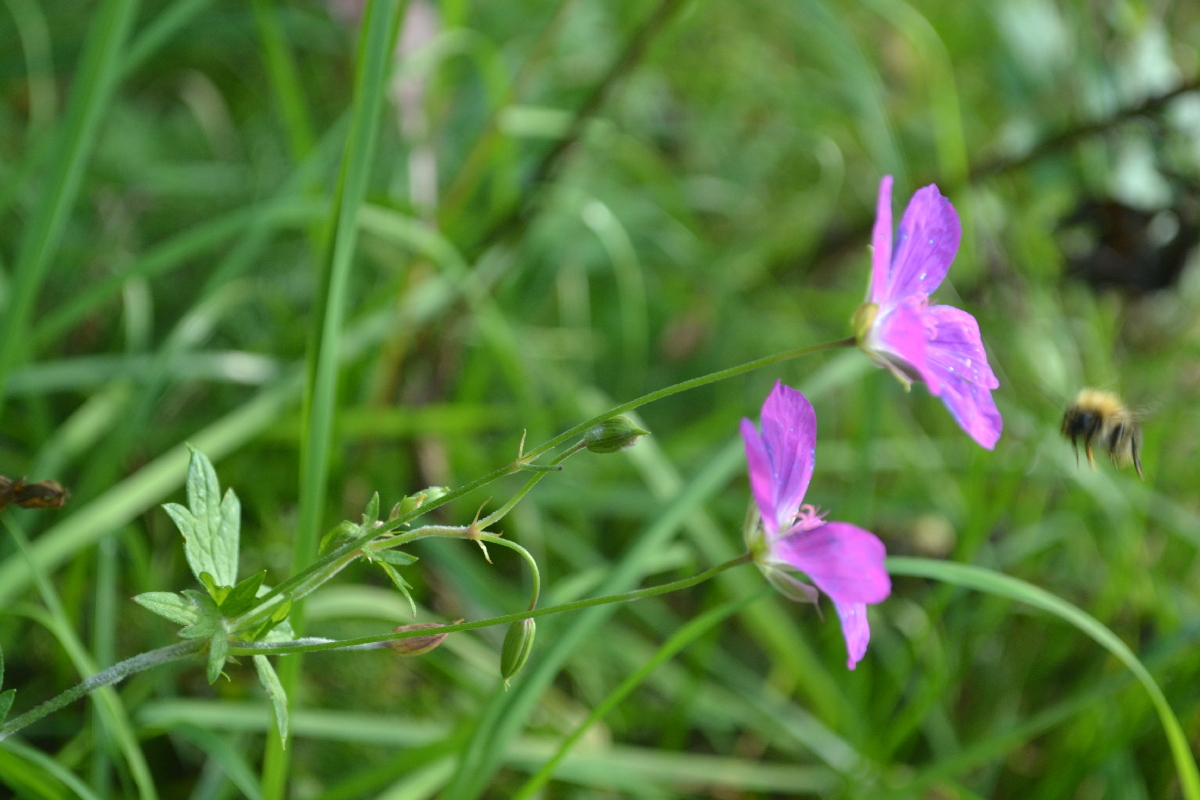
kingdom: Plantae
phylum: Tracheophyta
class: Magnoliopsida
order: Geraniales
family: Geraniaceae
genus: Geranium
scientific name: Geranium palustre
